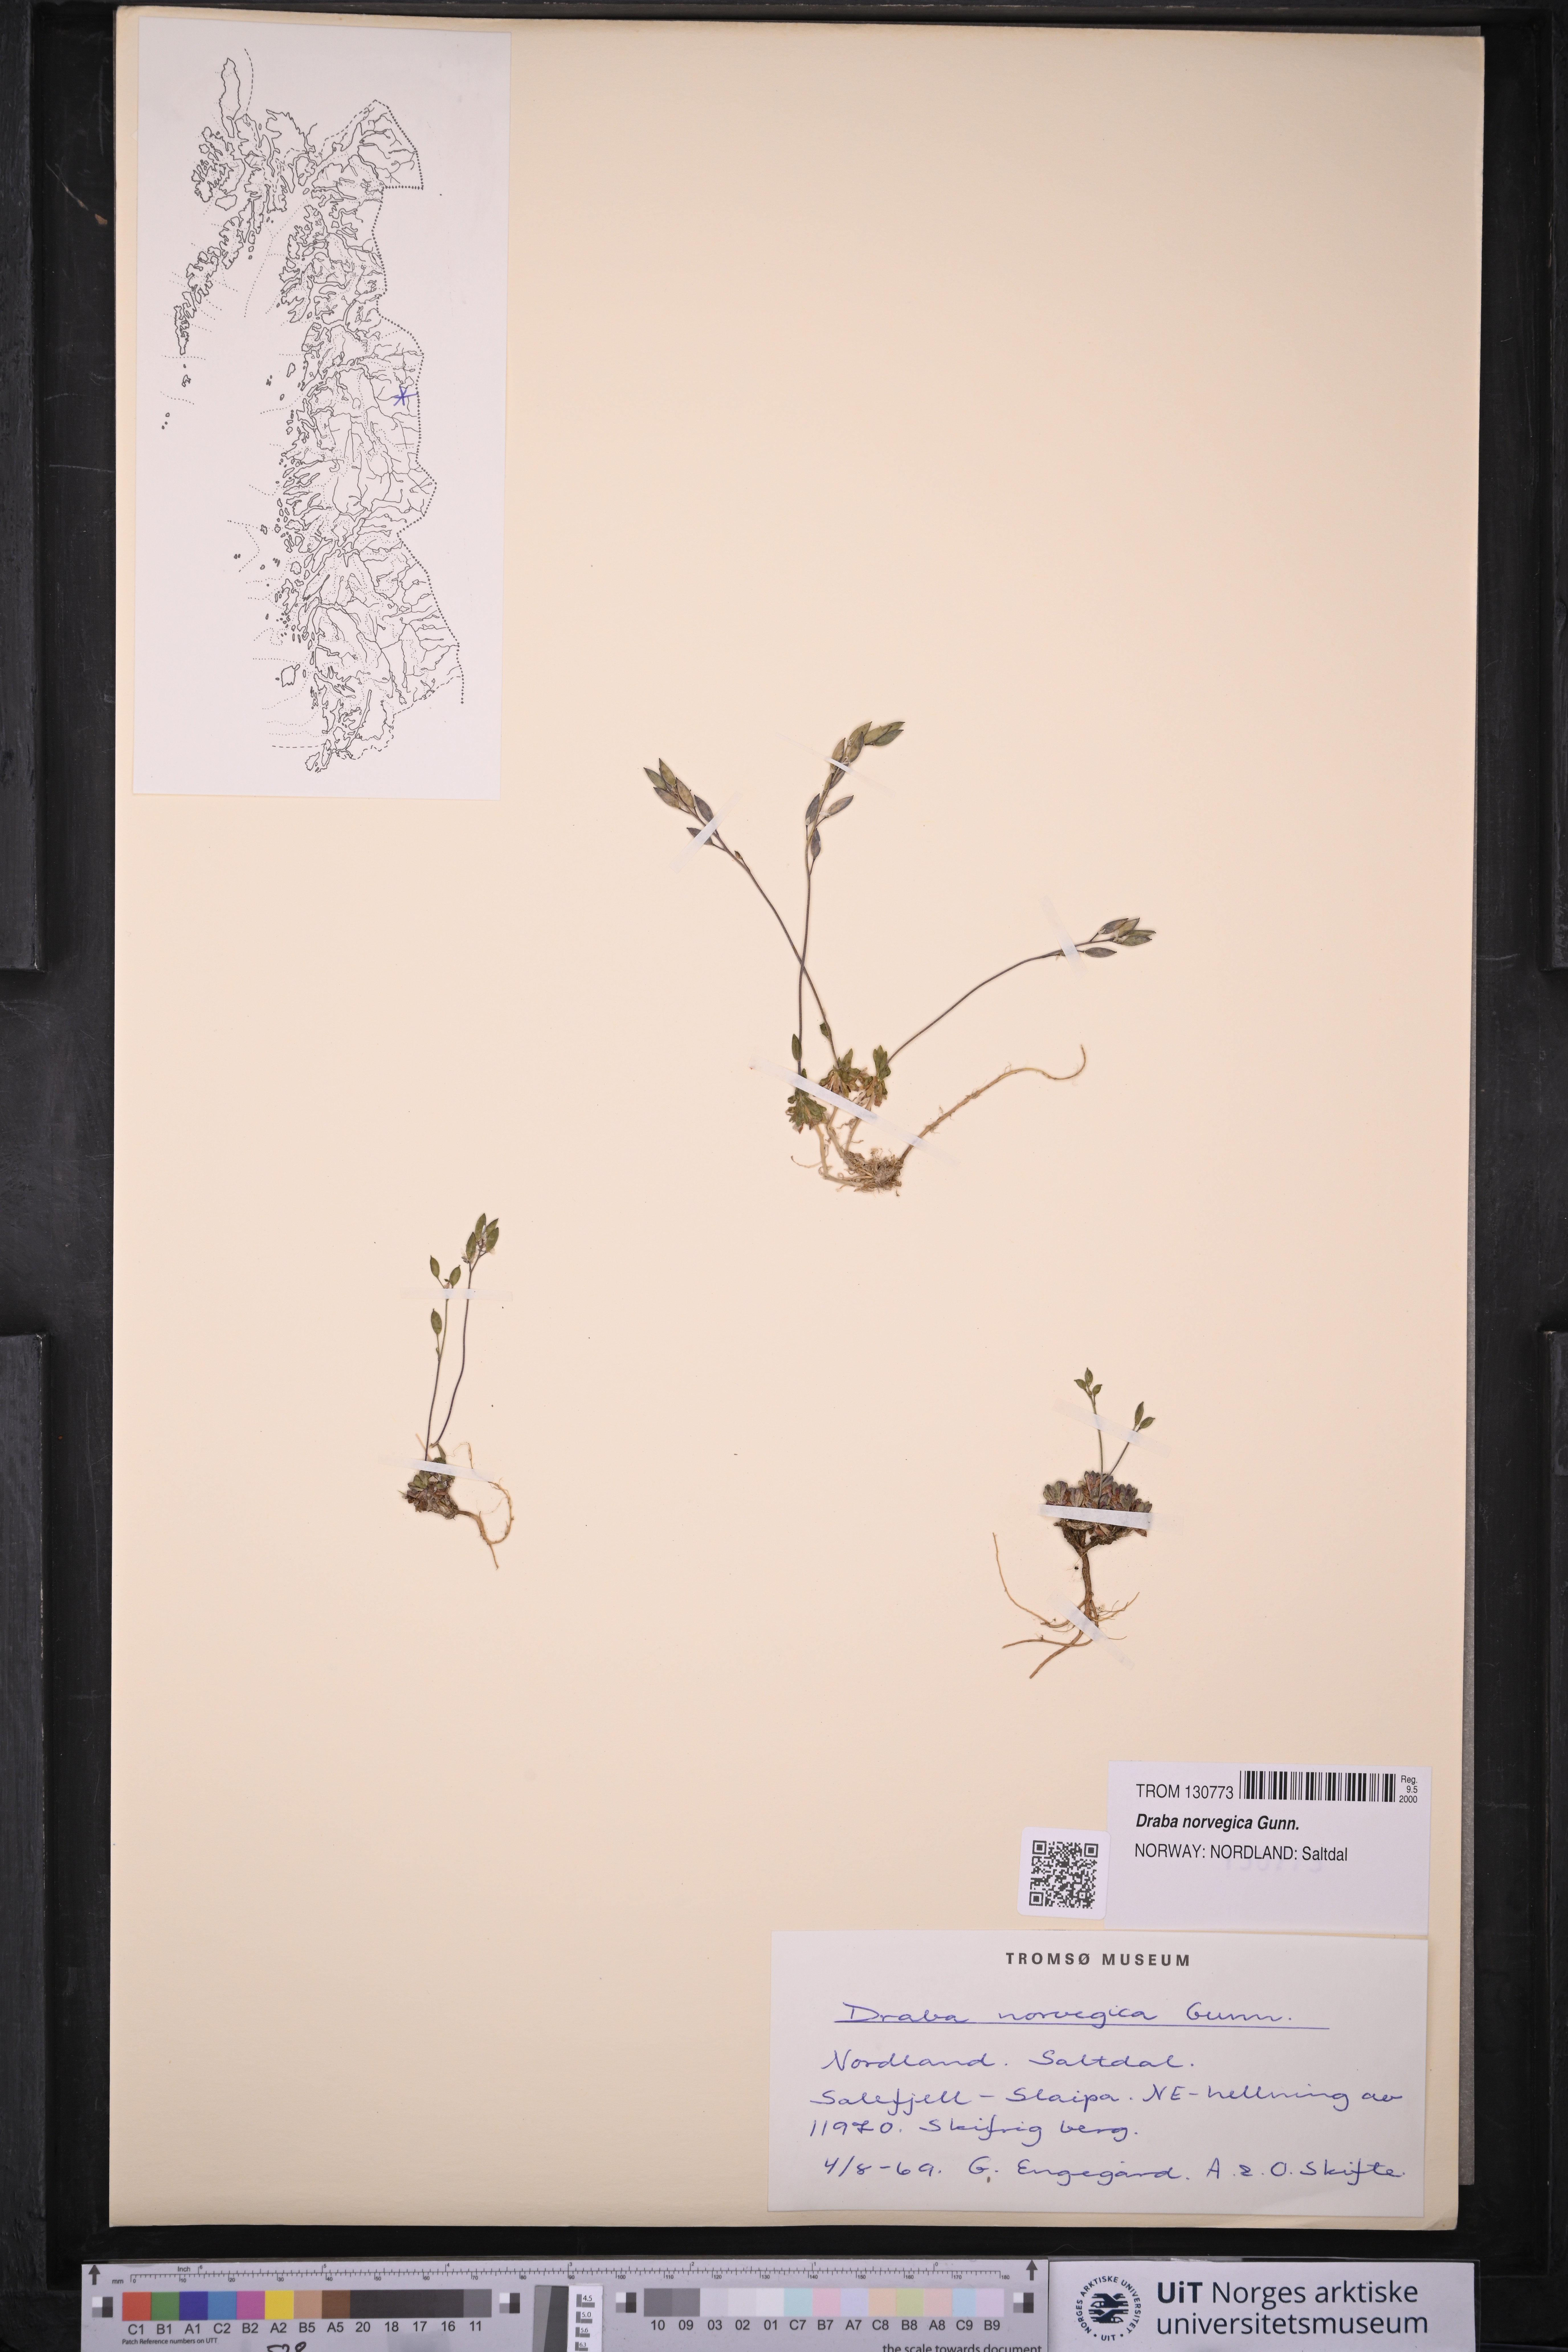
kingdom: Plantae
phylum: Tracheophyta
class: Magnoliopsida
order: Brassicales
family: Brassicaceae
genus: Draba
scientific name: Draba norvegica
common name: Rock whitlowgrass
